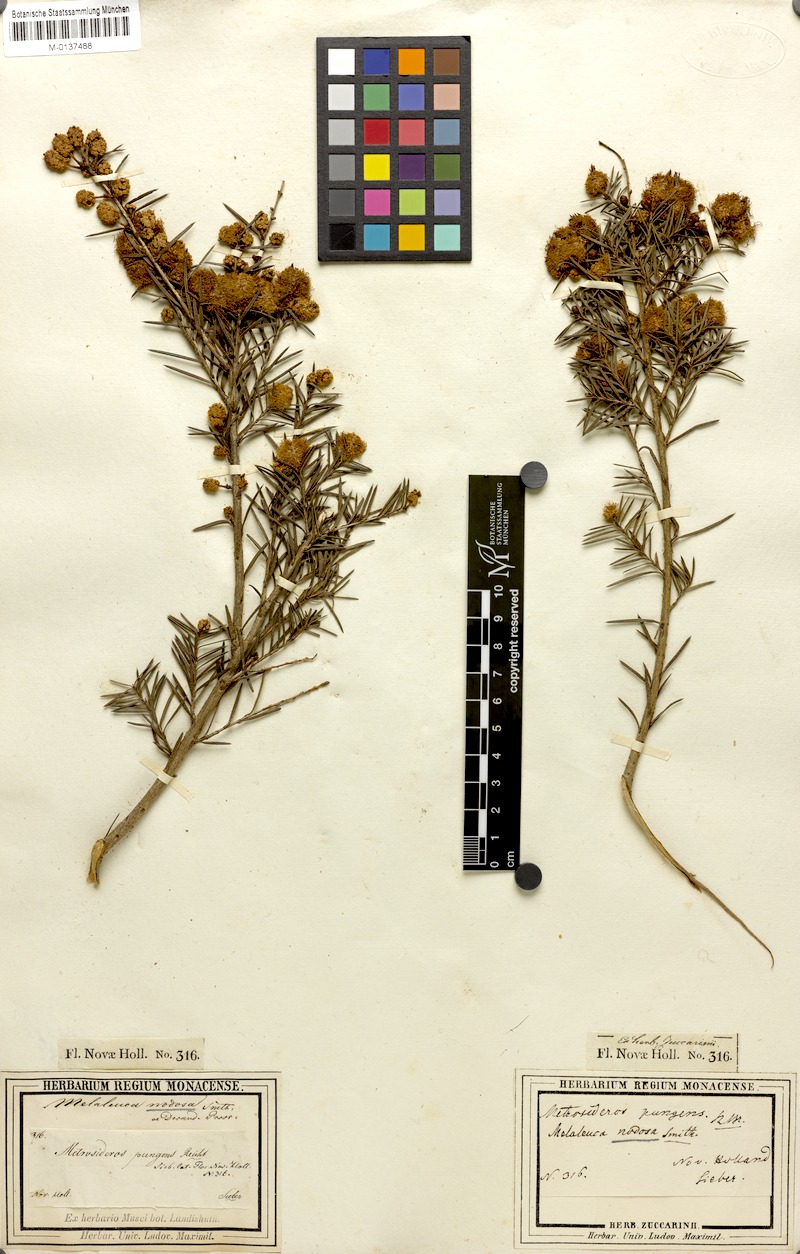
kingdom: Plantae
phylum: Tracheophyta
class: Magnoliopsida
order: Myrtales
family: Myrtaceae
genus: Melaleuca
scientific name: Melaleuca nodosa
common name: Prickly-leaf paperbark
